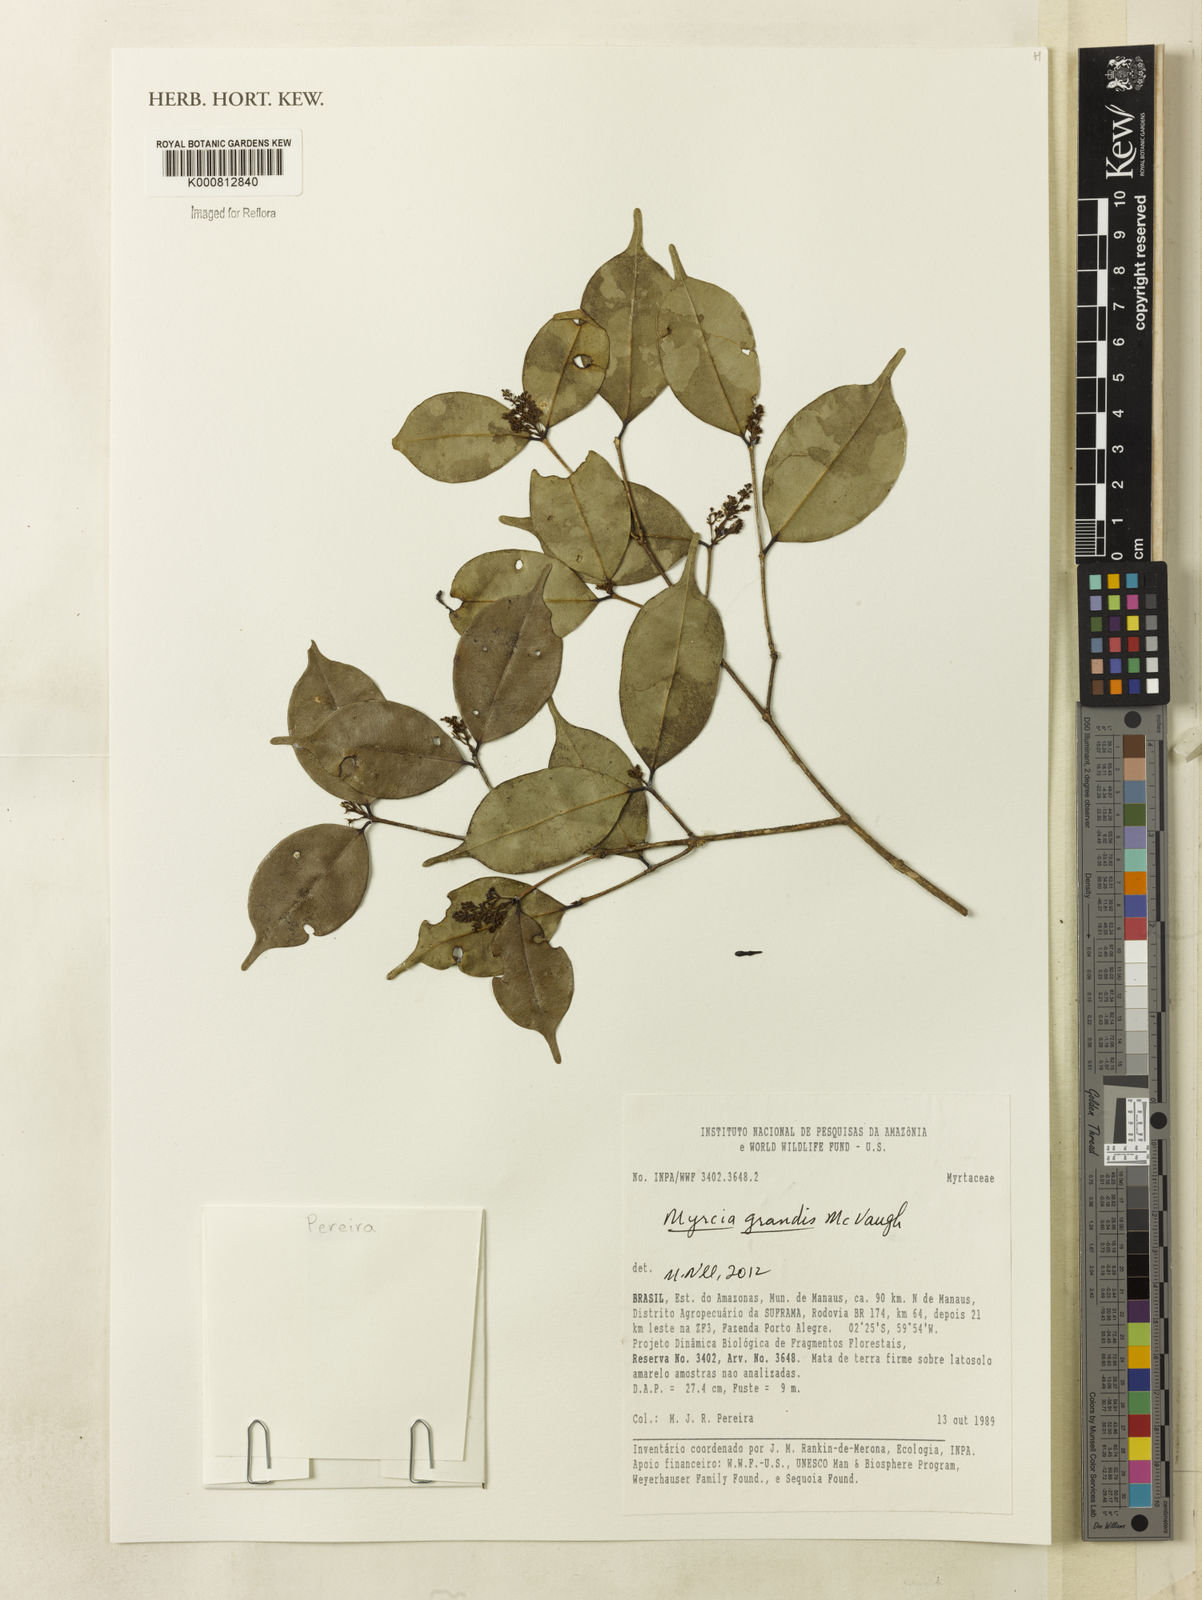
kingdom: Plantae
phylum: Tracheophyta
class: Magnoliopsida
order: Myrtales
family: Myrtaceae
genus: Myrcia
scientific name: Myrcia grandis
